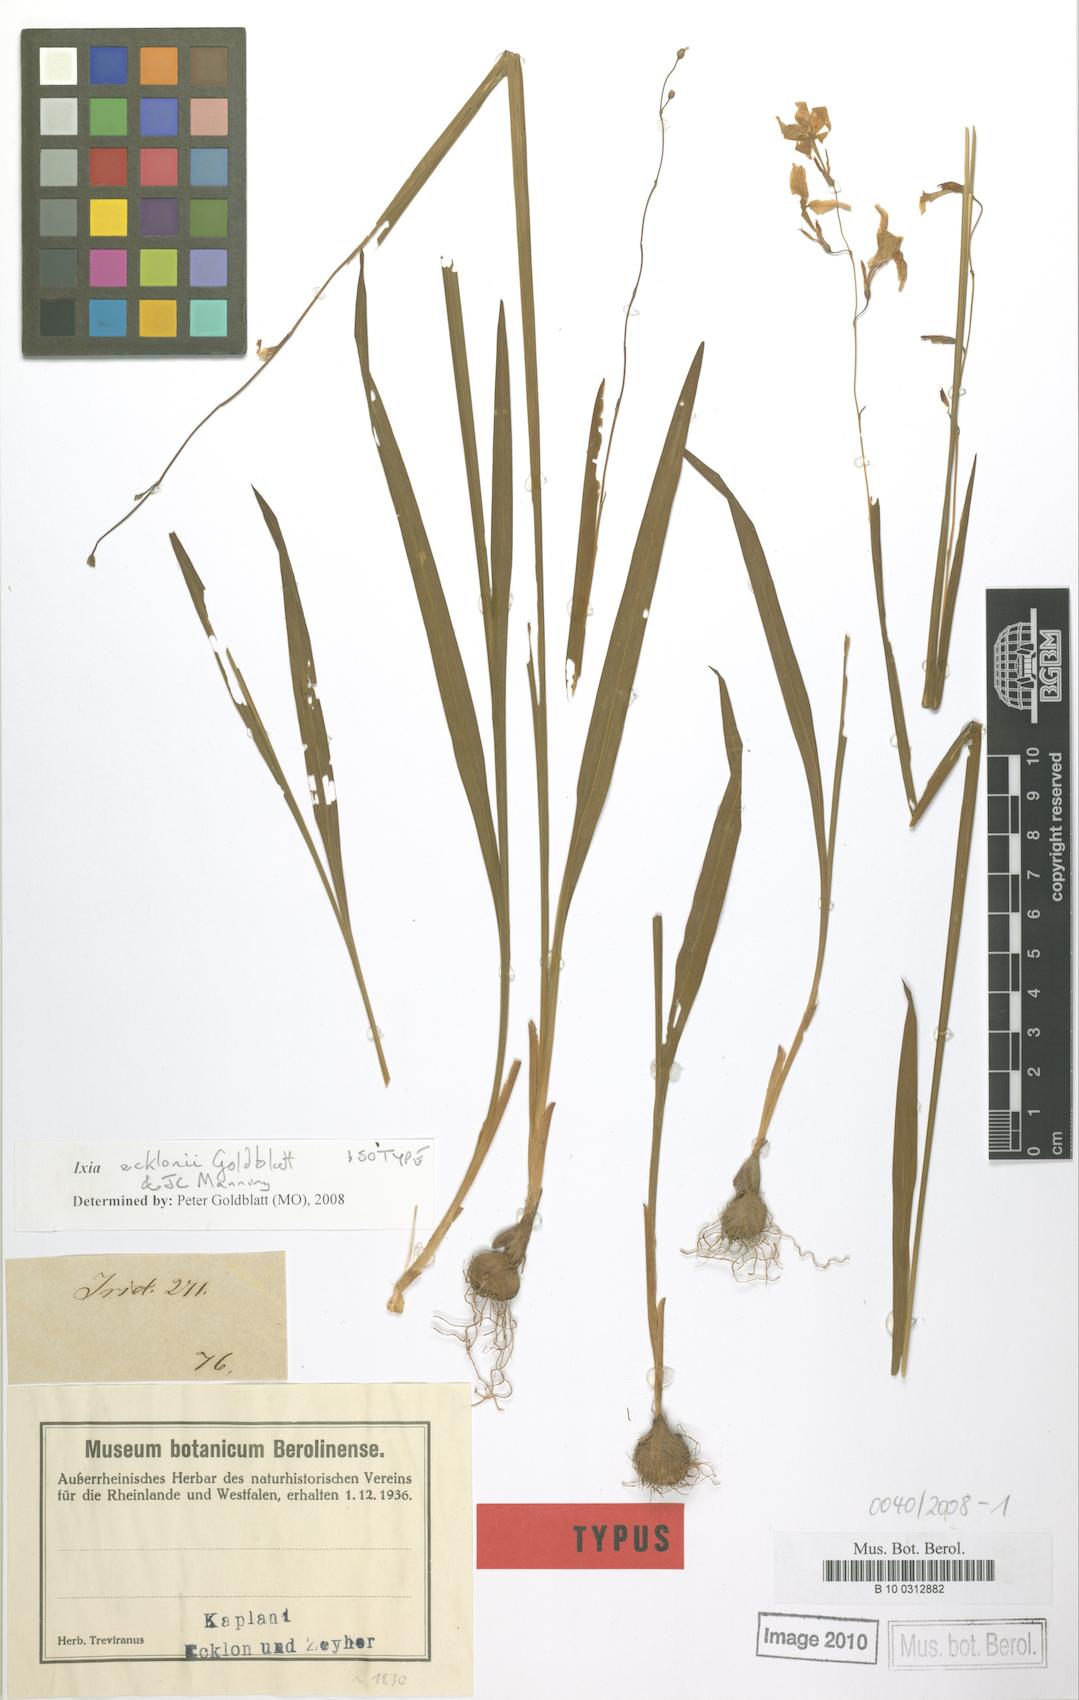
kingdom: Plantae
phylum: Tracheophyta
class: Liliopsida
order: Asparagales
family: Iridaceae
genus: Ixia
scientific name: Ixia ecklonii
